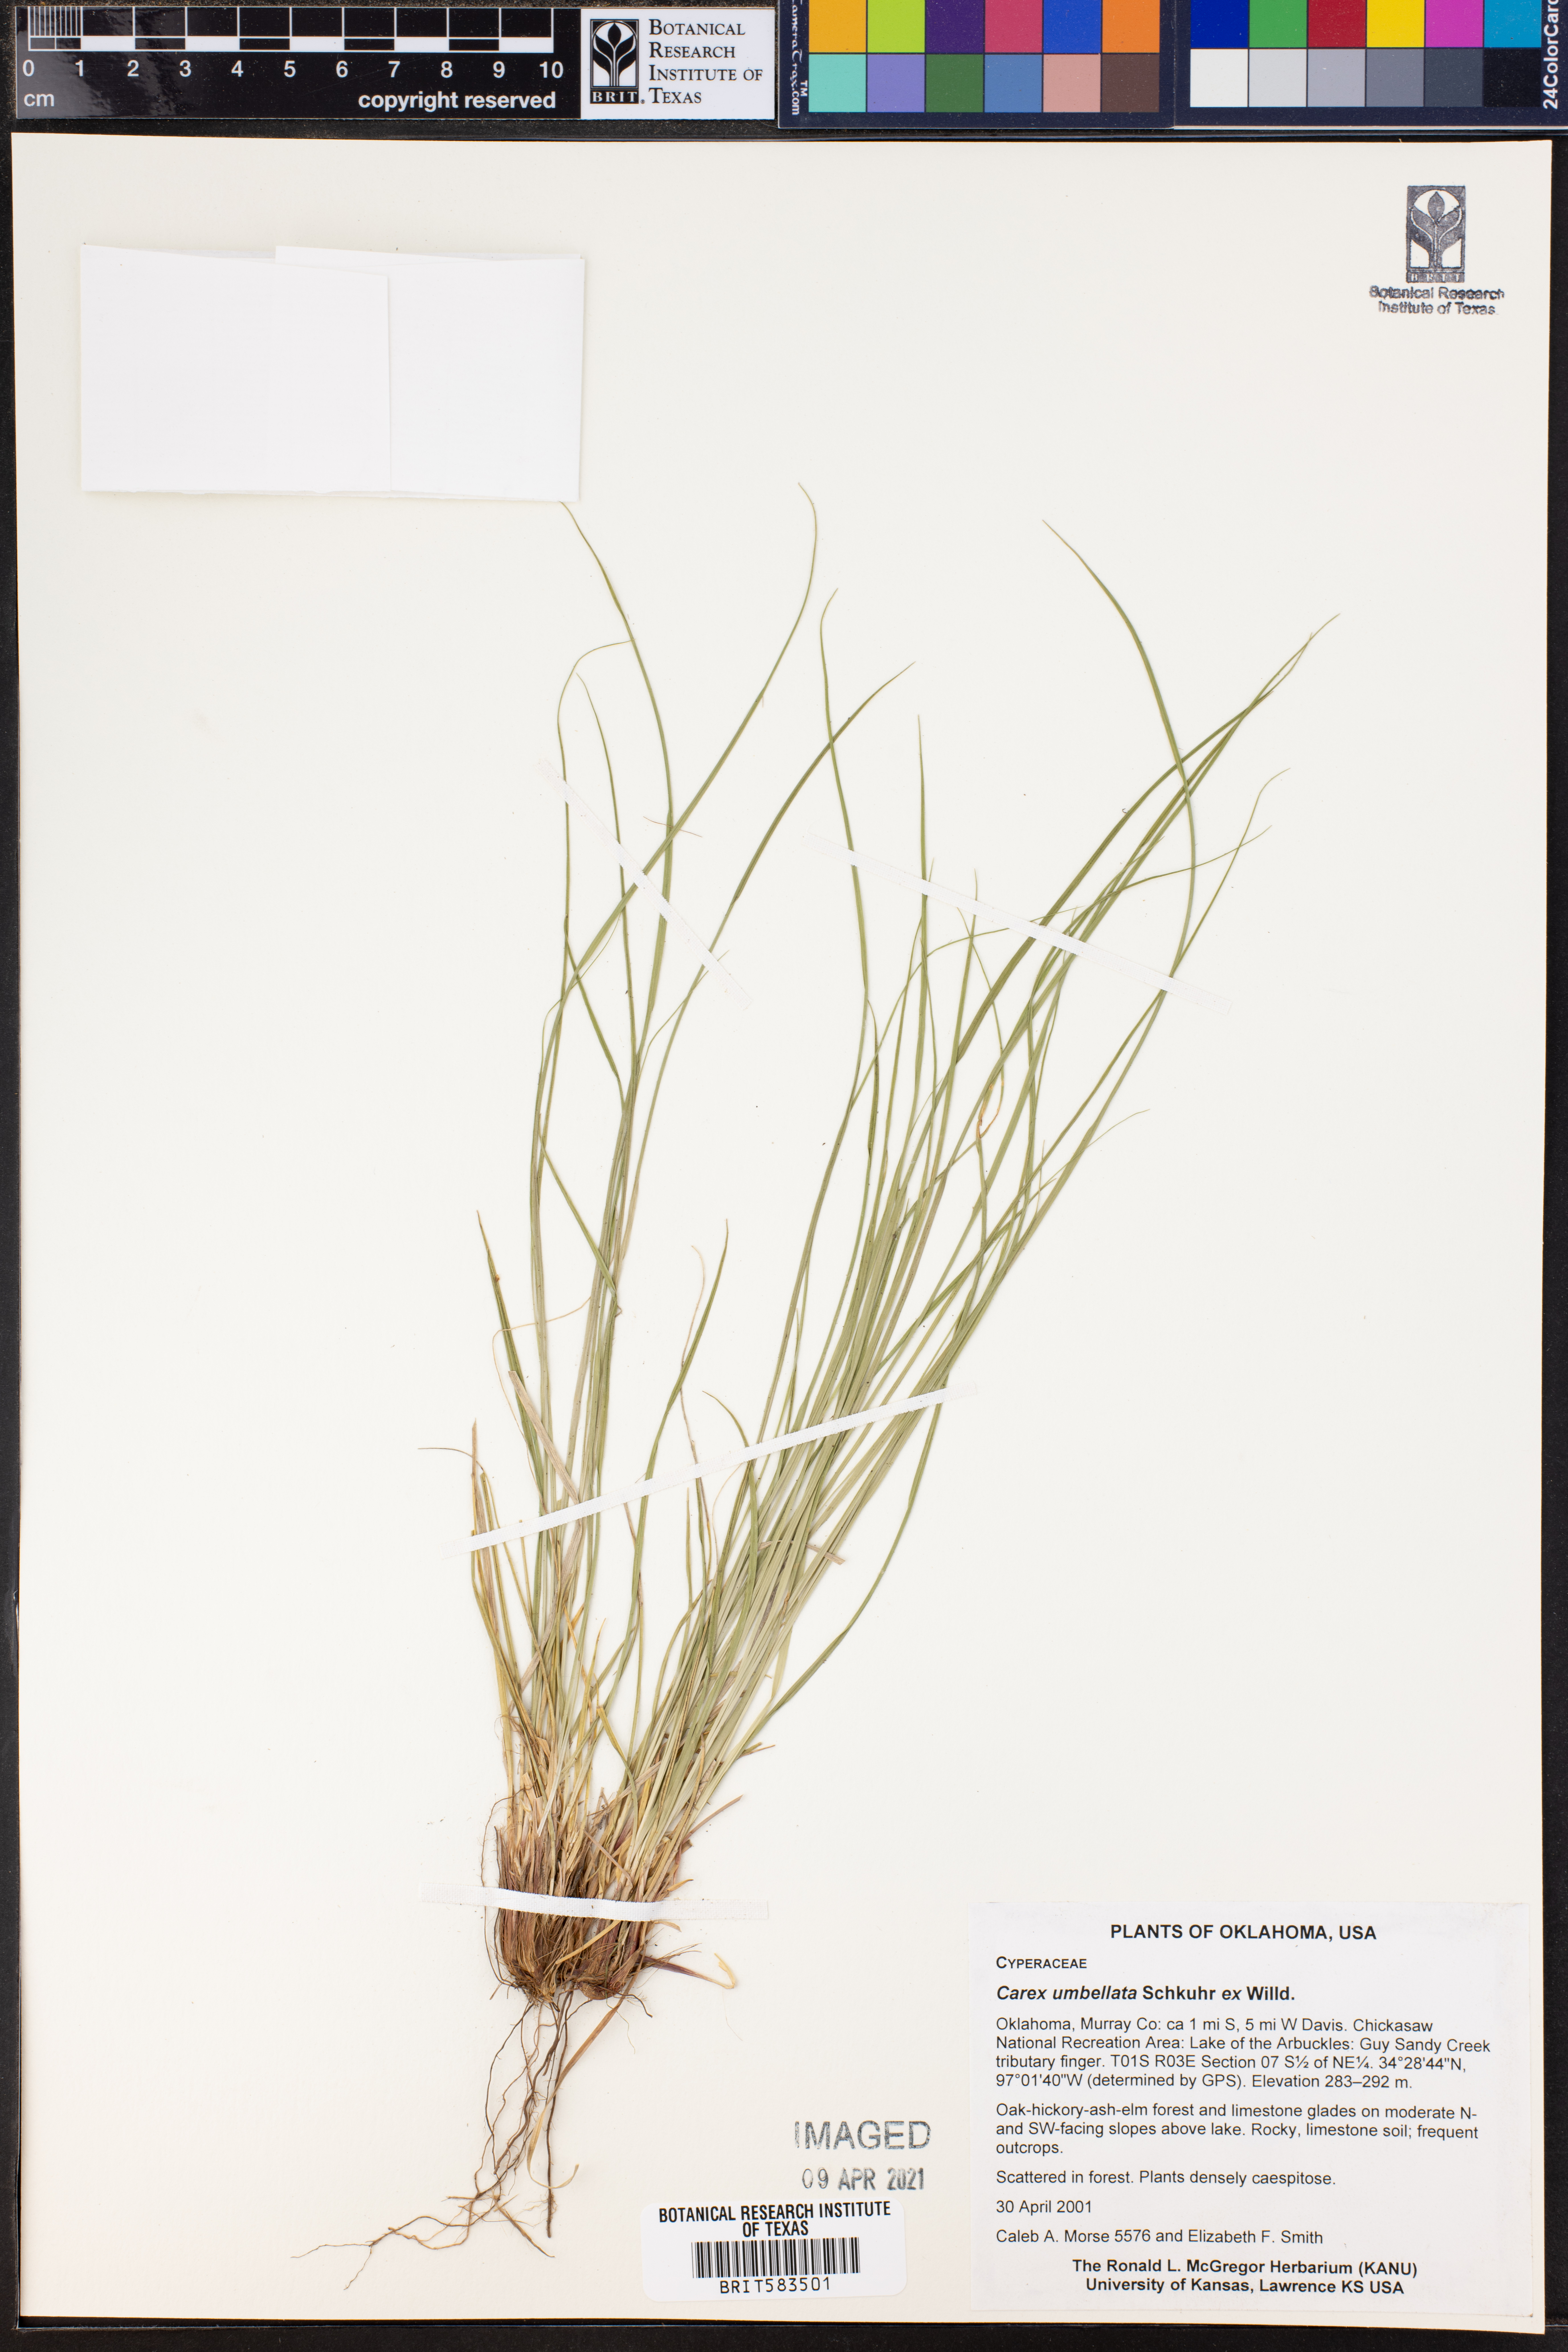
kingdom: Plantae
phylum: Tracheophyta
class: Liliopsida
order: Poales
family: Cyperaceae
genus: Carex
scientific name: Carex umbellata
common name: Early oak sedge
